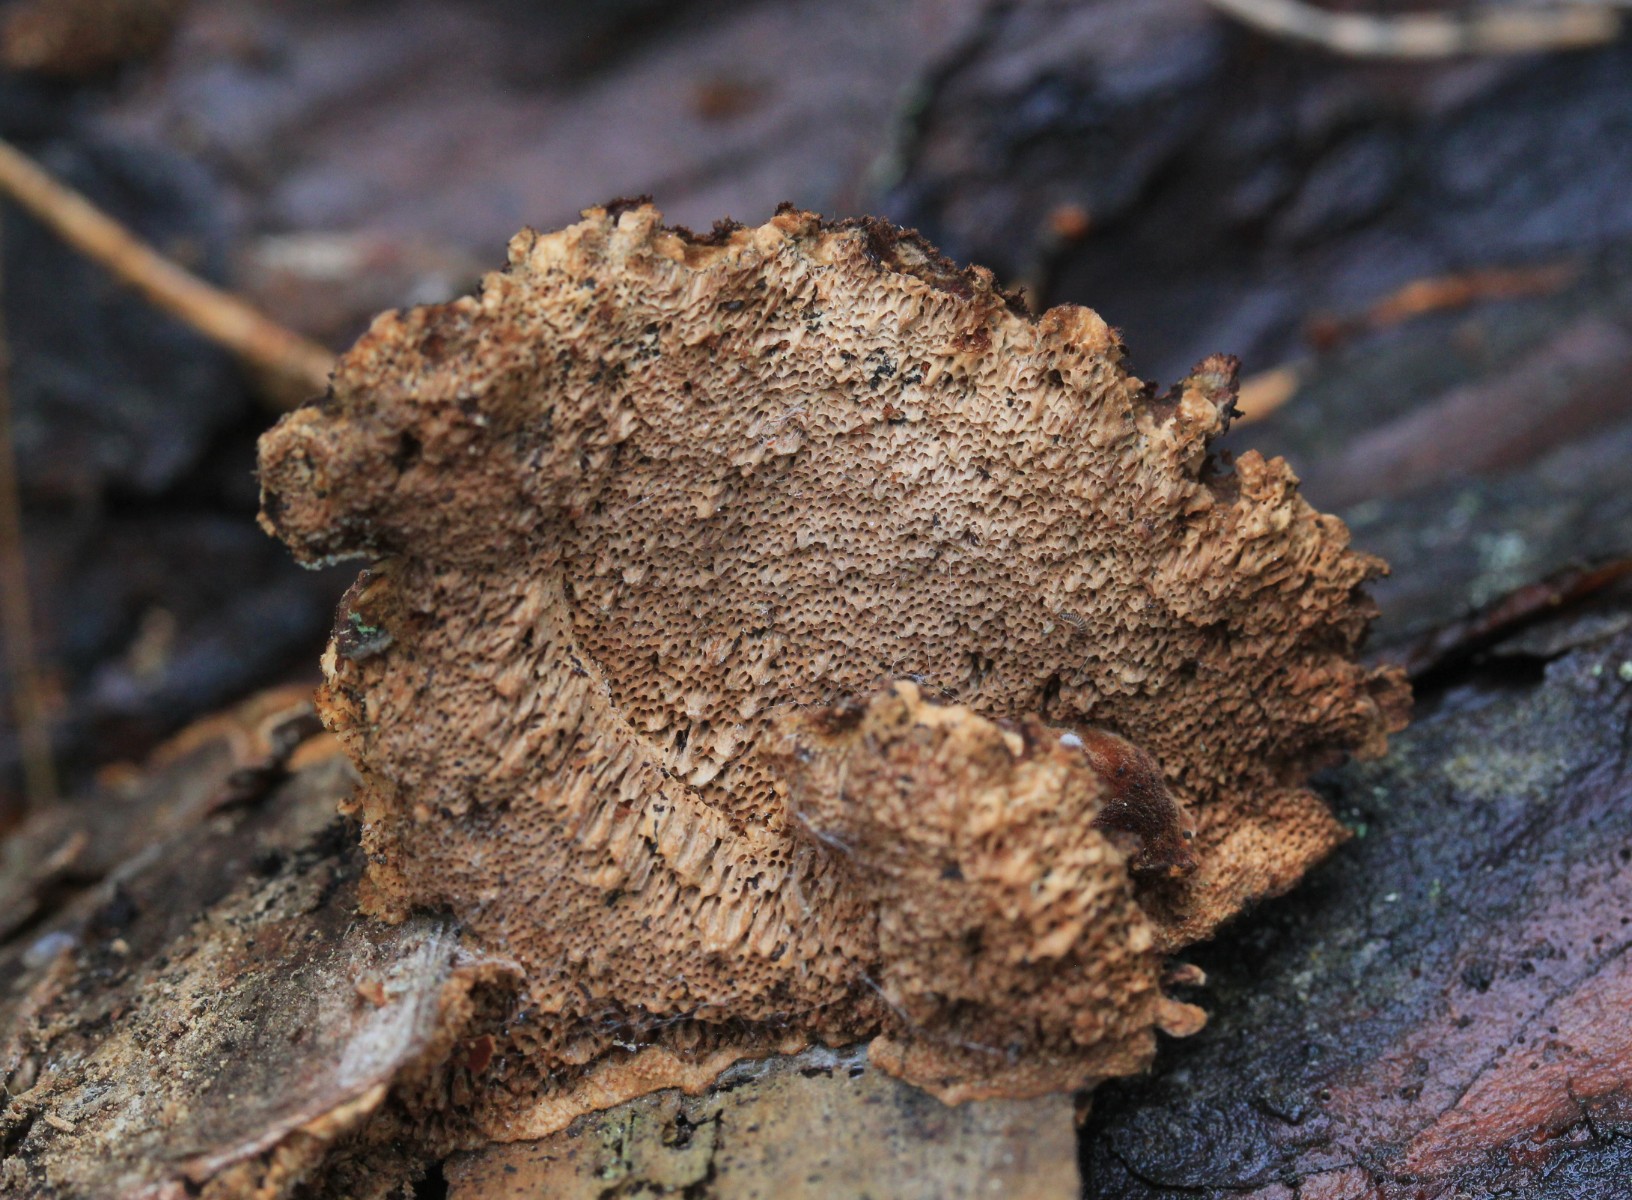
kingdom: Fungi
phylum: Basidiomycota
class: Agaricomycetes
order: Polyporales
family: Ischnodermataceae
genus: Ischnoderma
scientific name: Ischnoderma benzoinum
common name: gran-tjæreporesvamp
